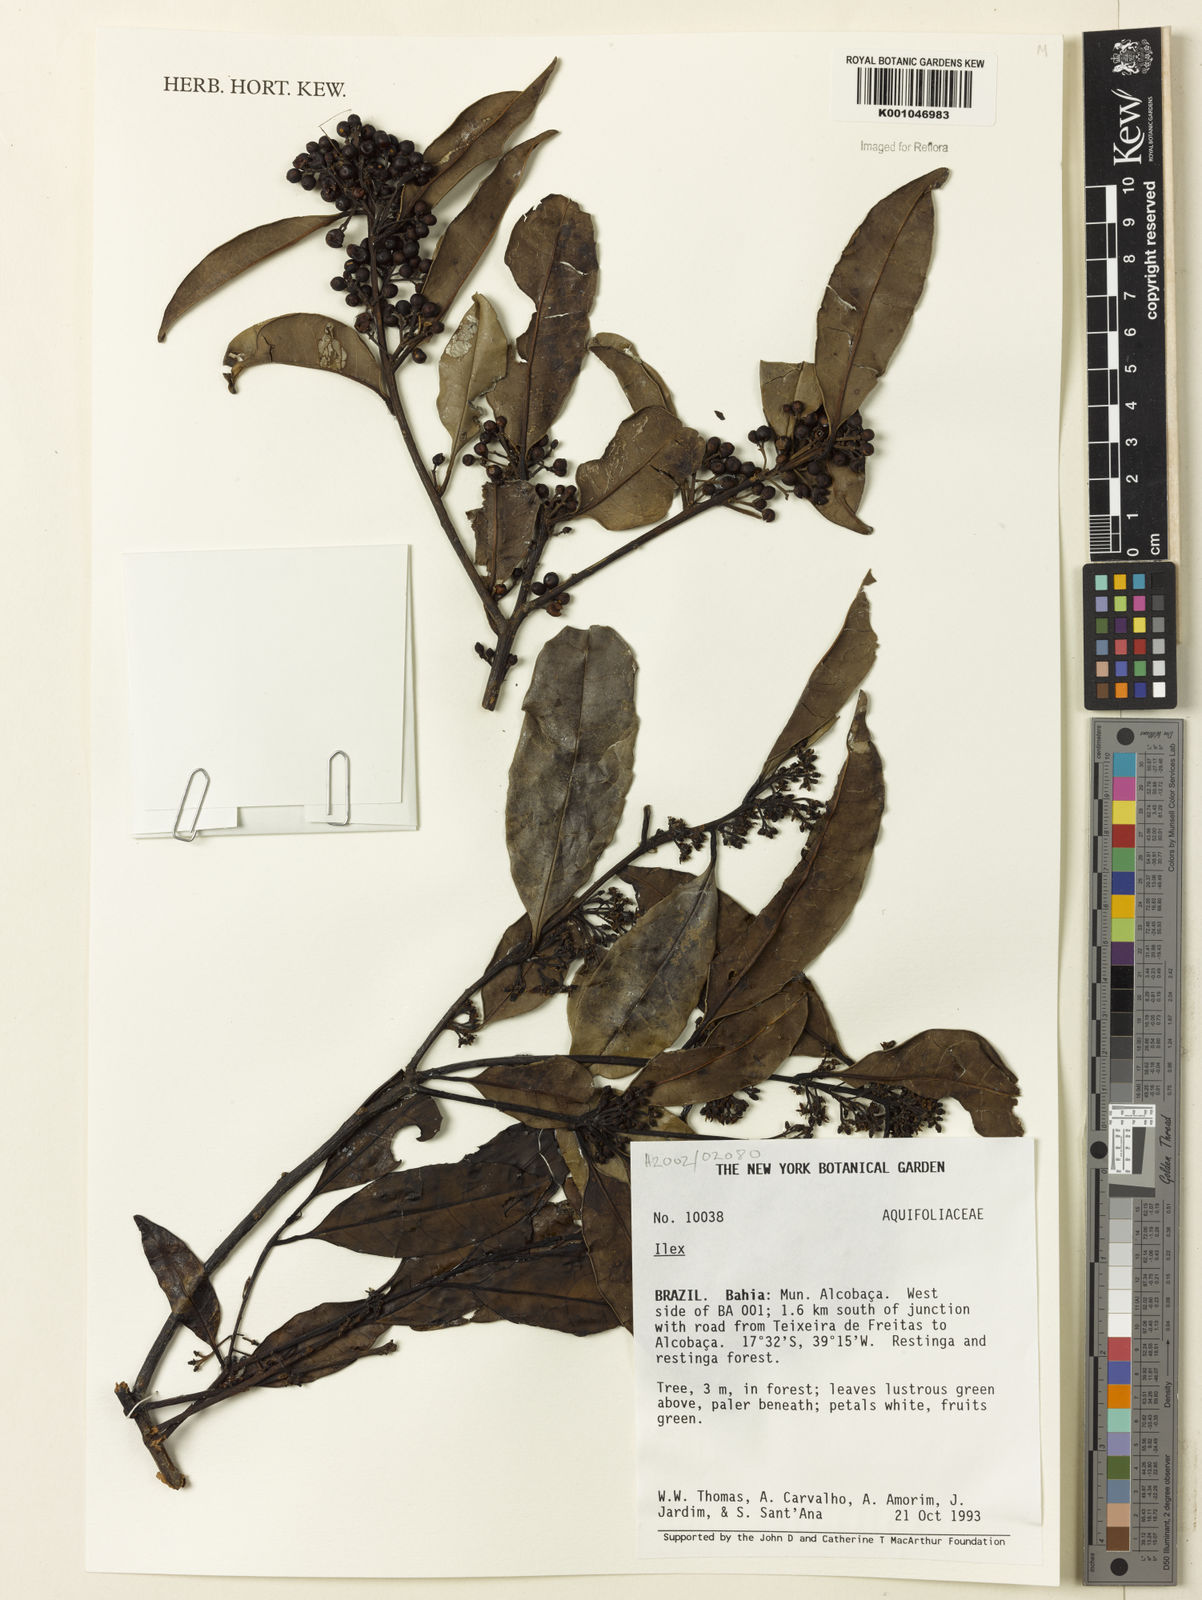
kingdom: Plantae
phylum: Tracheophyta
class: Magnoliopsida
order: Aquifoliales
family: Aquifoliaceae
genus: Ilex
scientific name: Ilex
